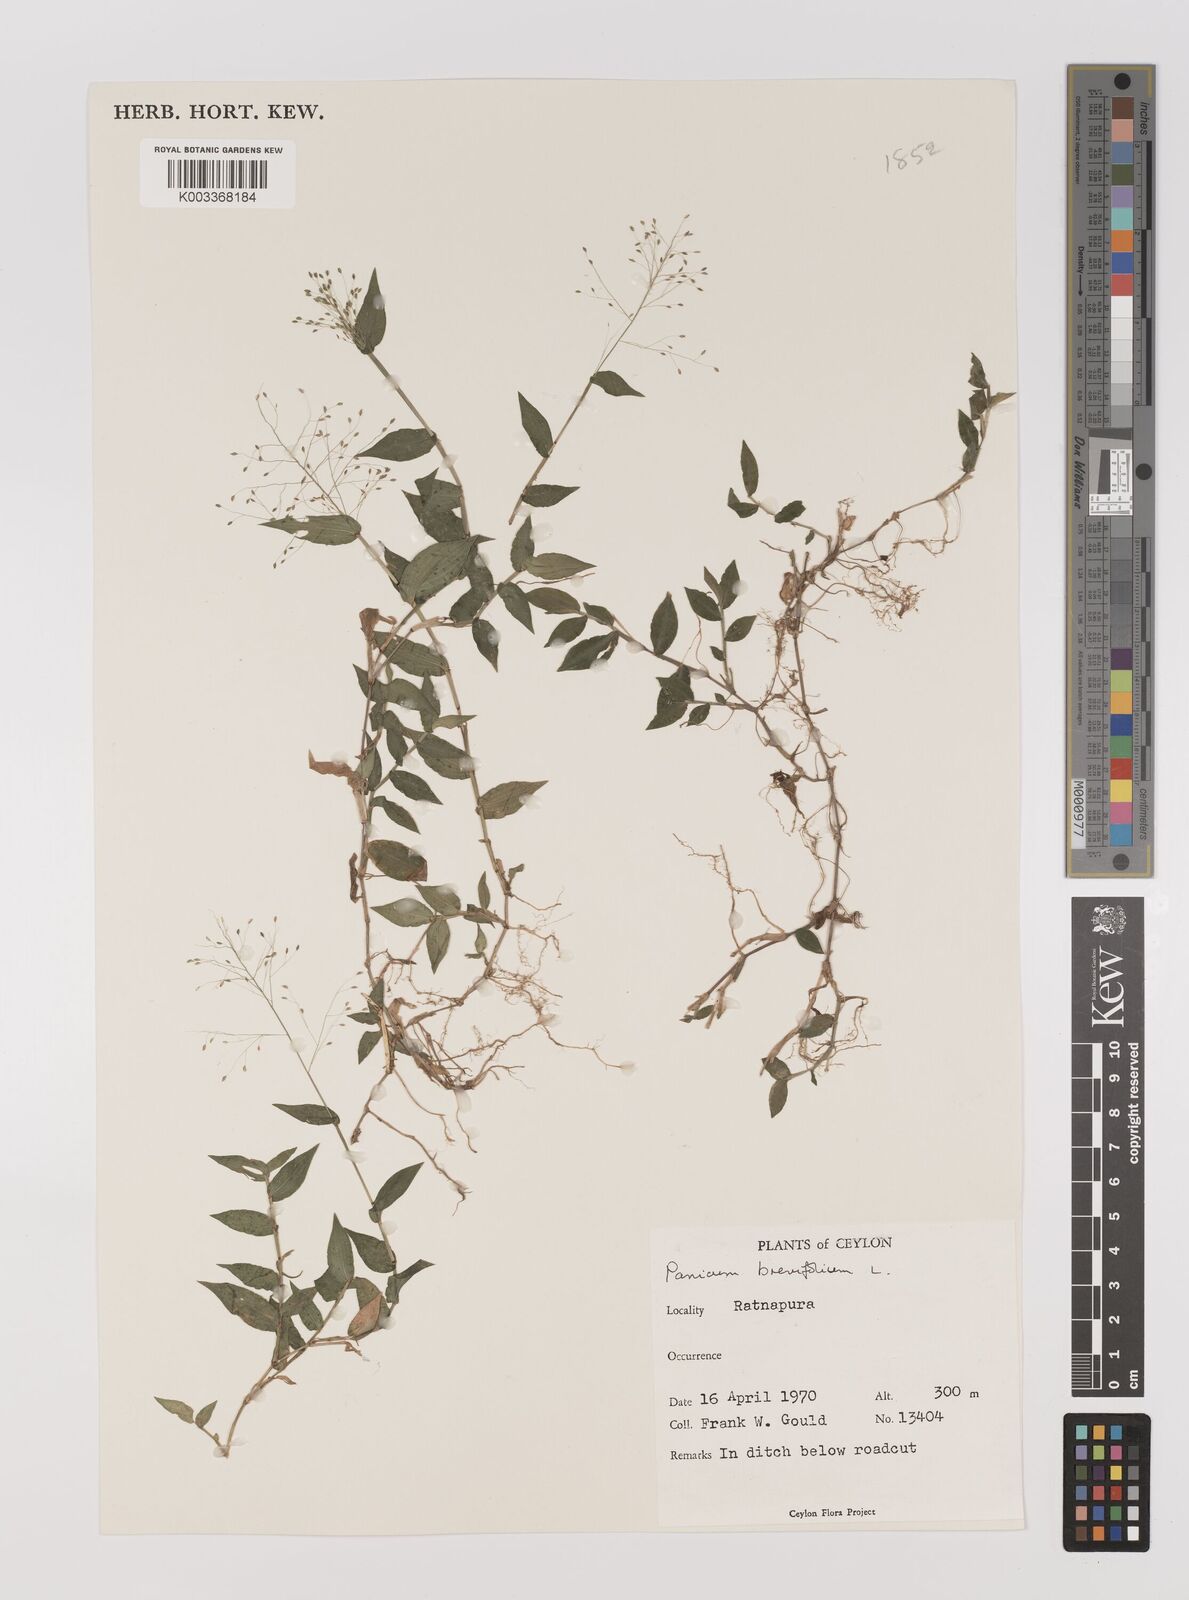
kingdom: Plantae
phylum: Tracheophyta
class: Liliopsida
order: Poales
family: Poaceae
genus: Panicum
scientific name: Panicum brevifolium
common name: Shortleaf panic grass
